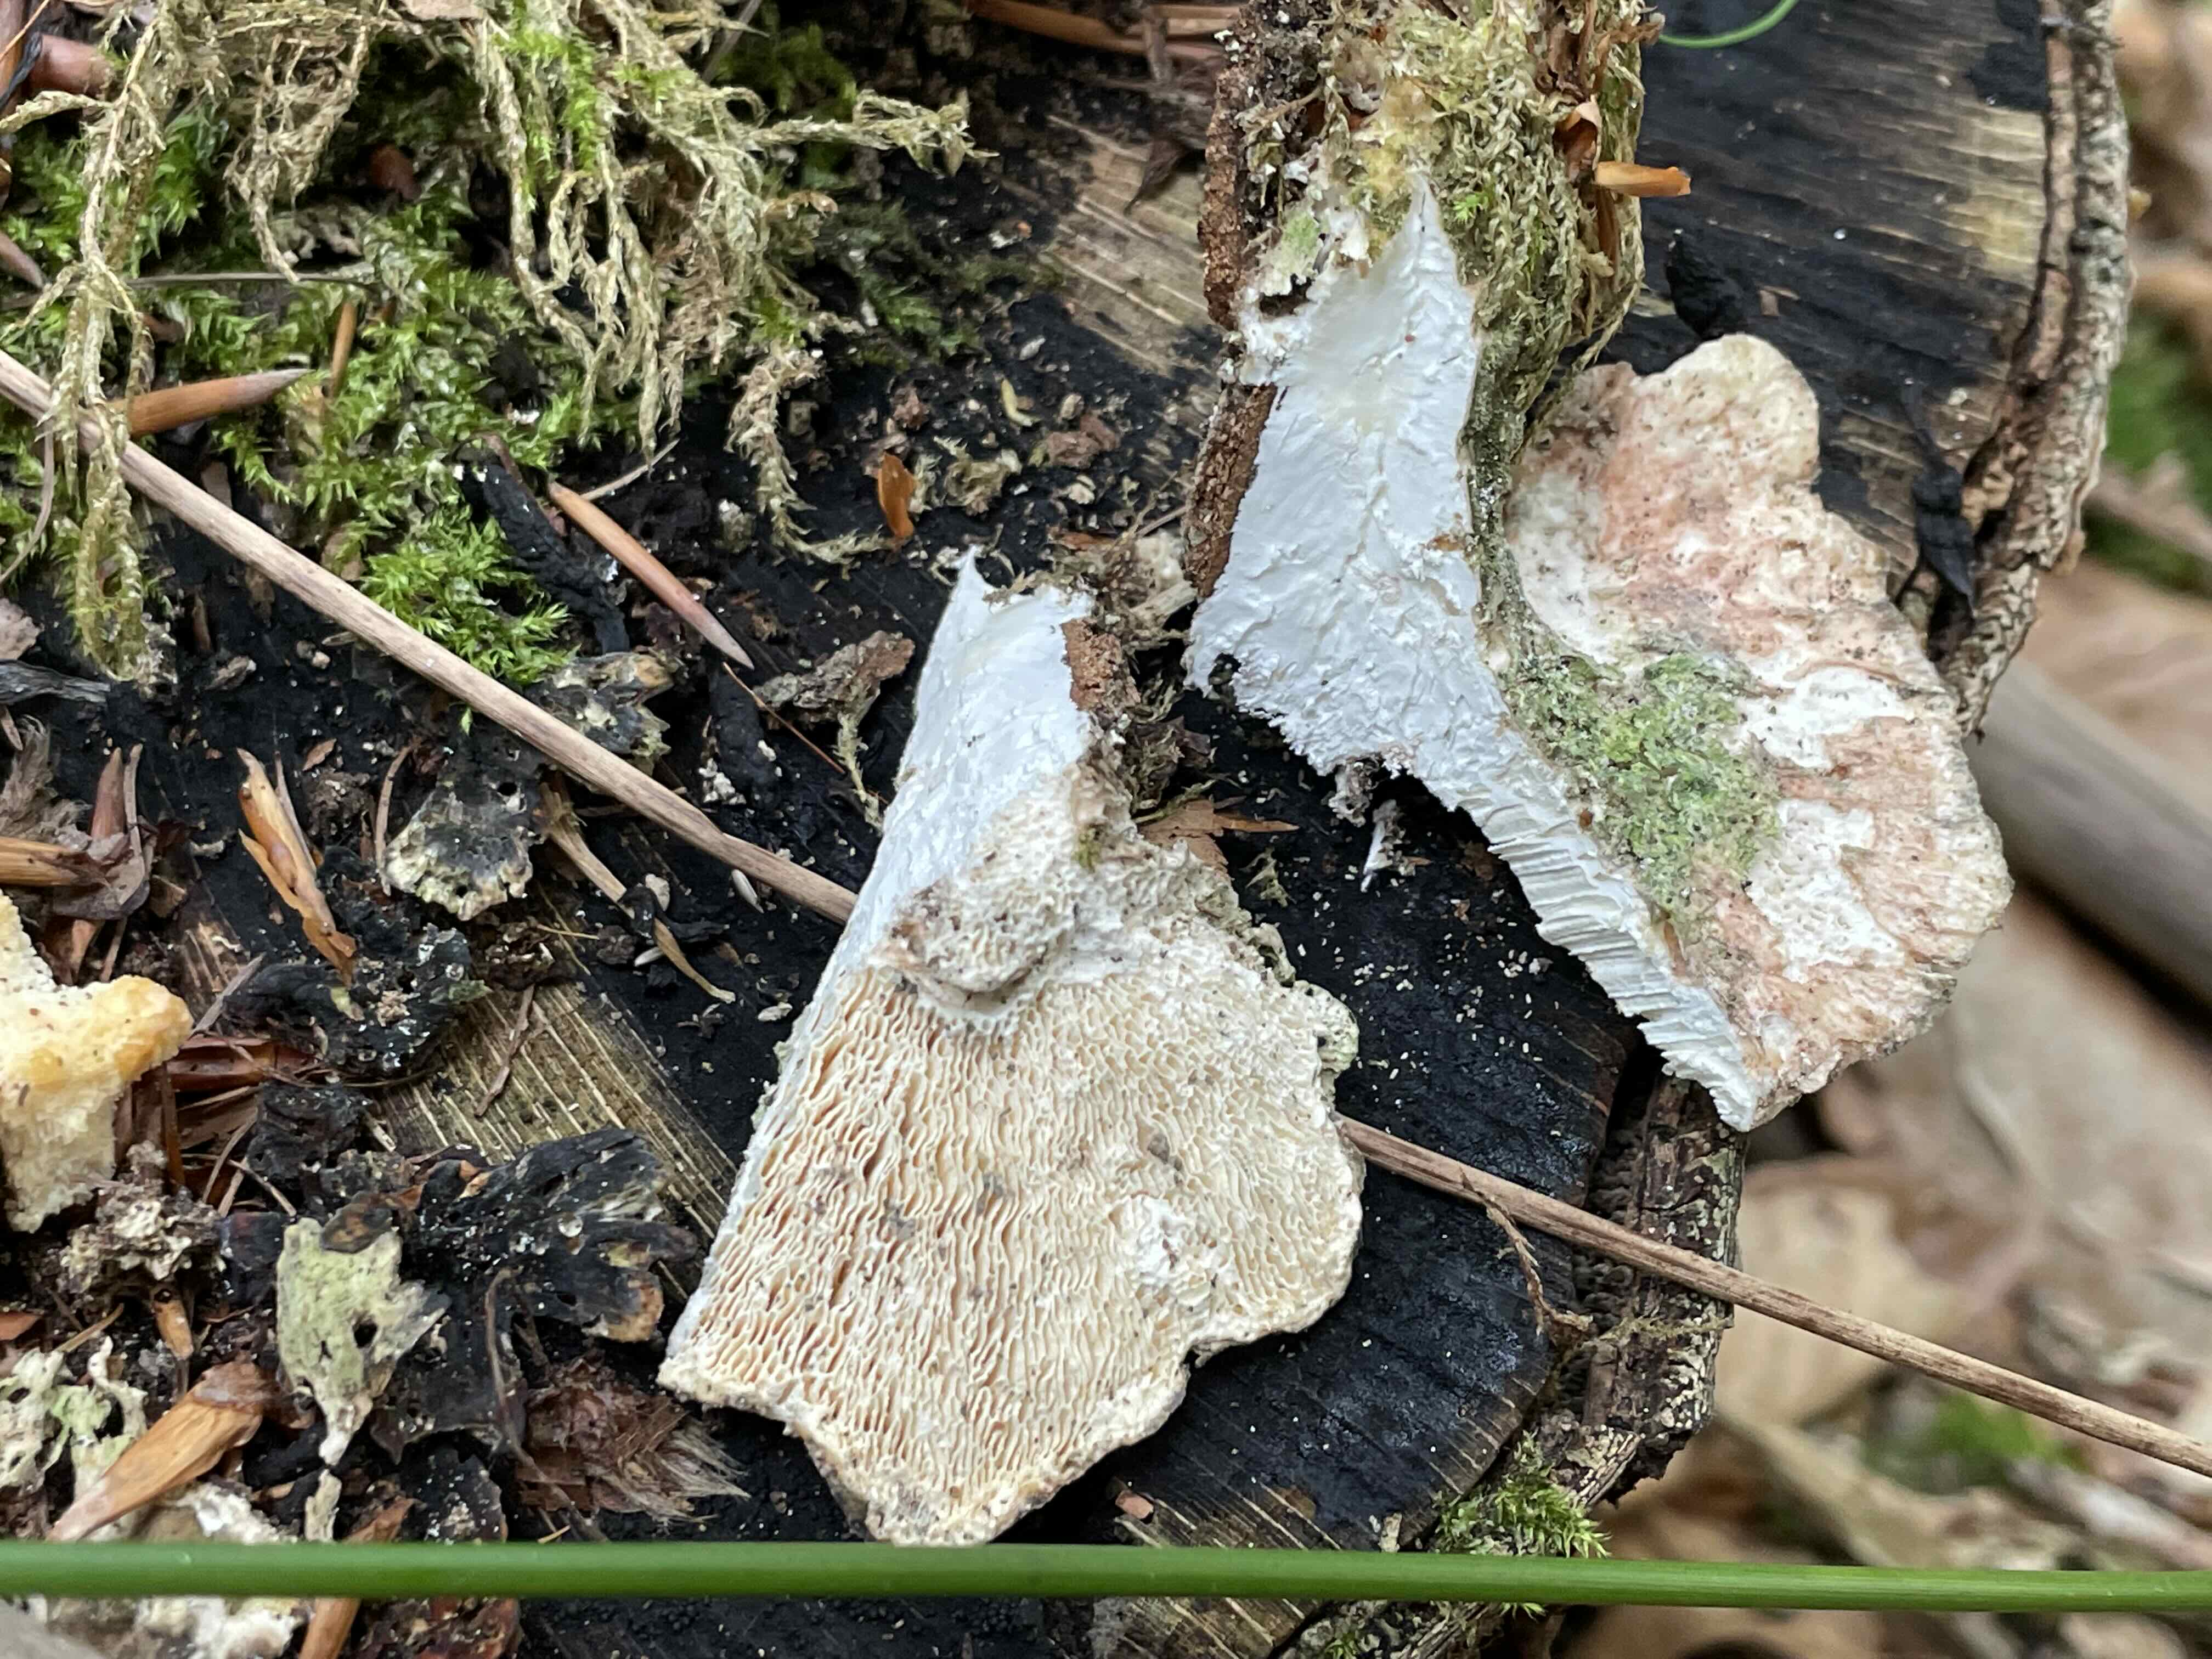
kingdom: Fungi
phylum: Basidiomycota
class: Agaricomycetes
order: Polyporales
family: Polyporaceae
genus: Lenzites
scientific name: Lenzites betulinus
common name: birke-læderporesvamp
